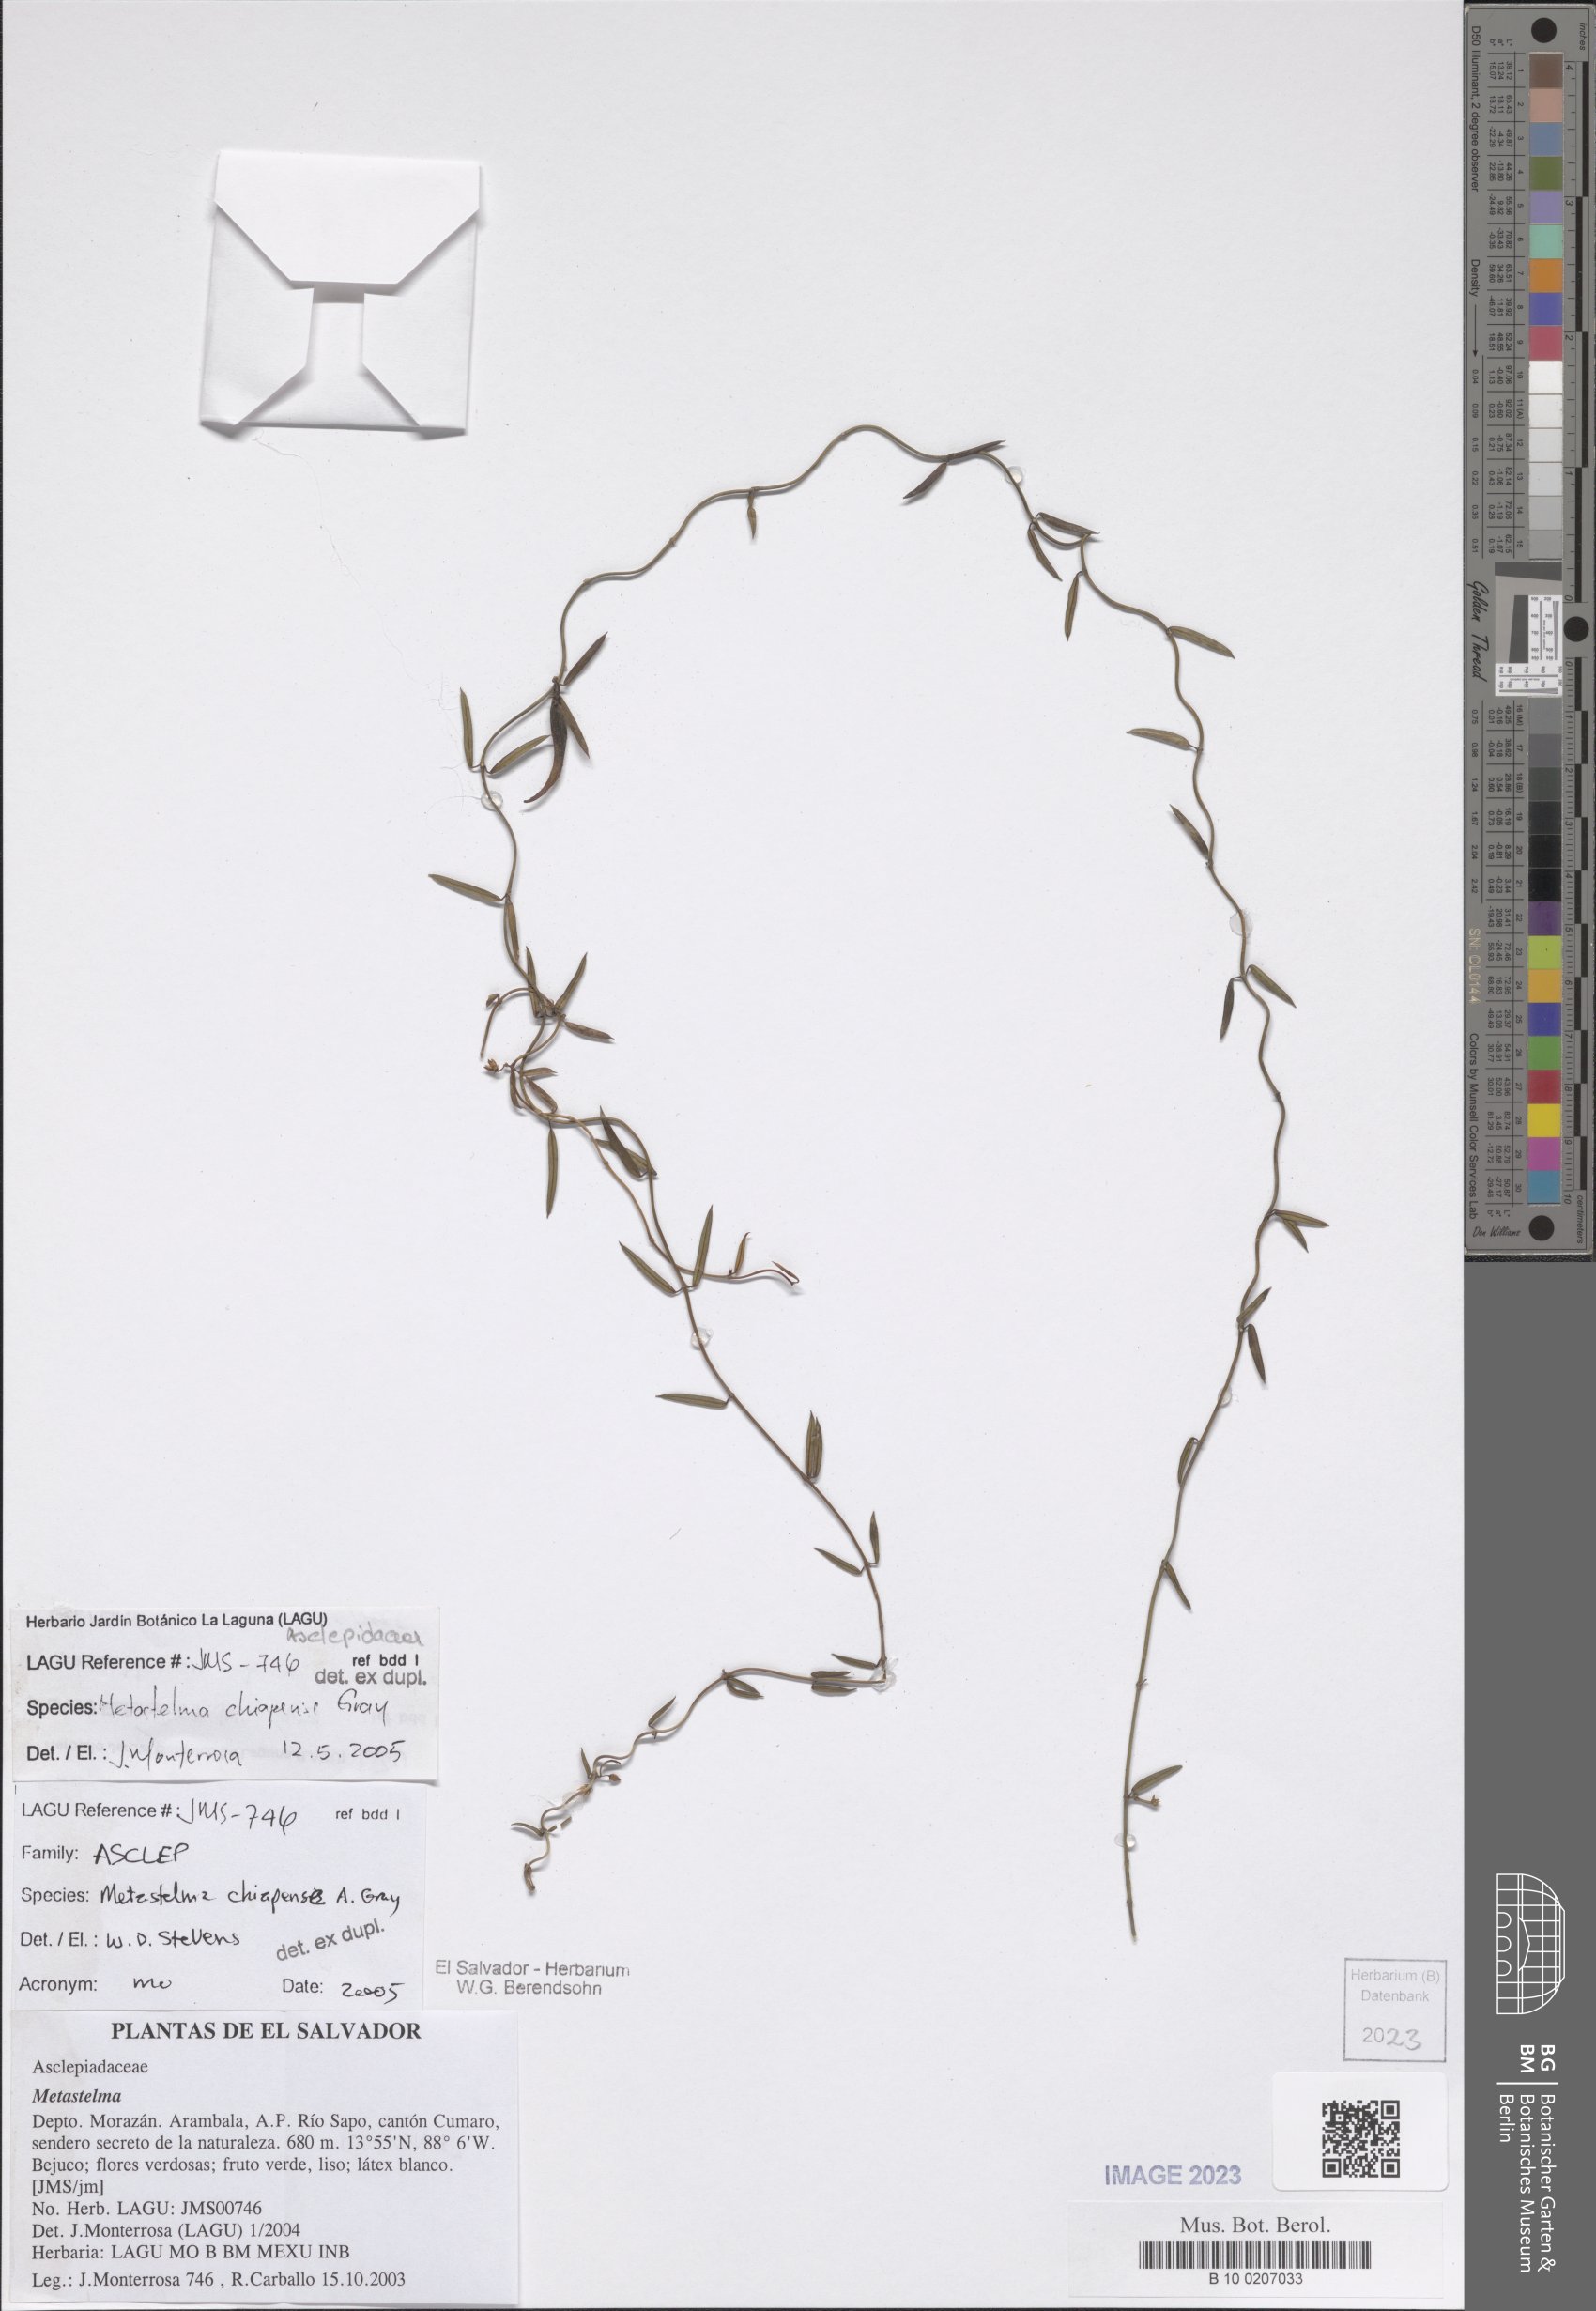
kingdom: Plantae
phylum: Tracheophyta
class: Magnoliopsida
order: Gentianales
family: Apocynaceae
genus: Metastelma
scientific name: Metastelma arizonicum
